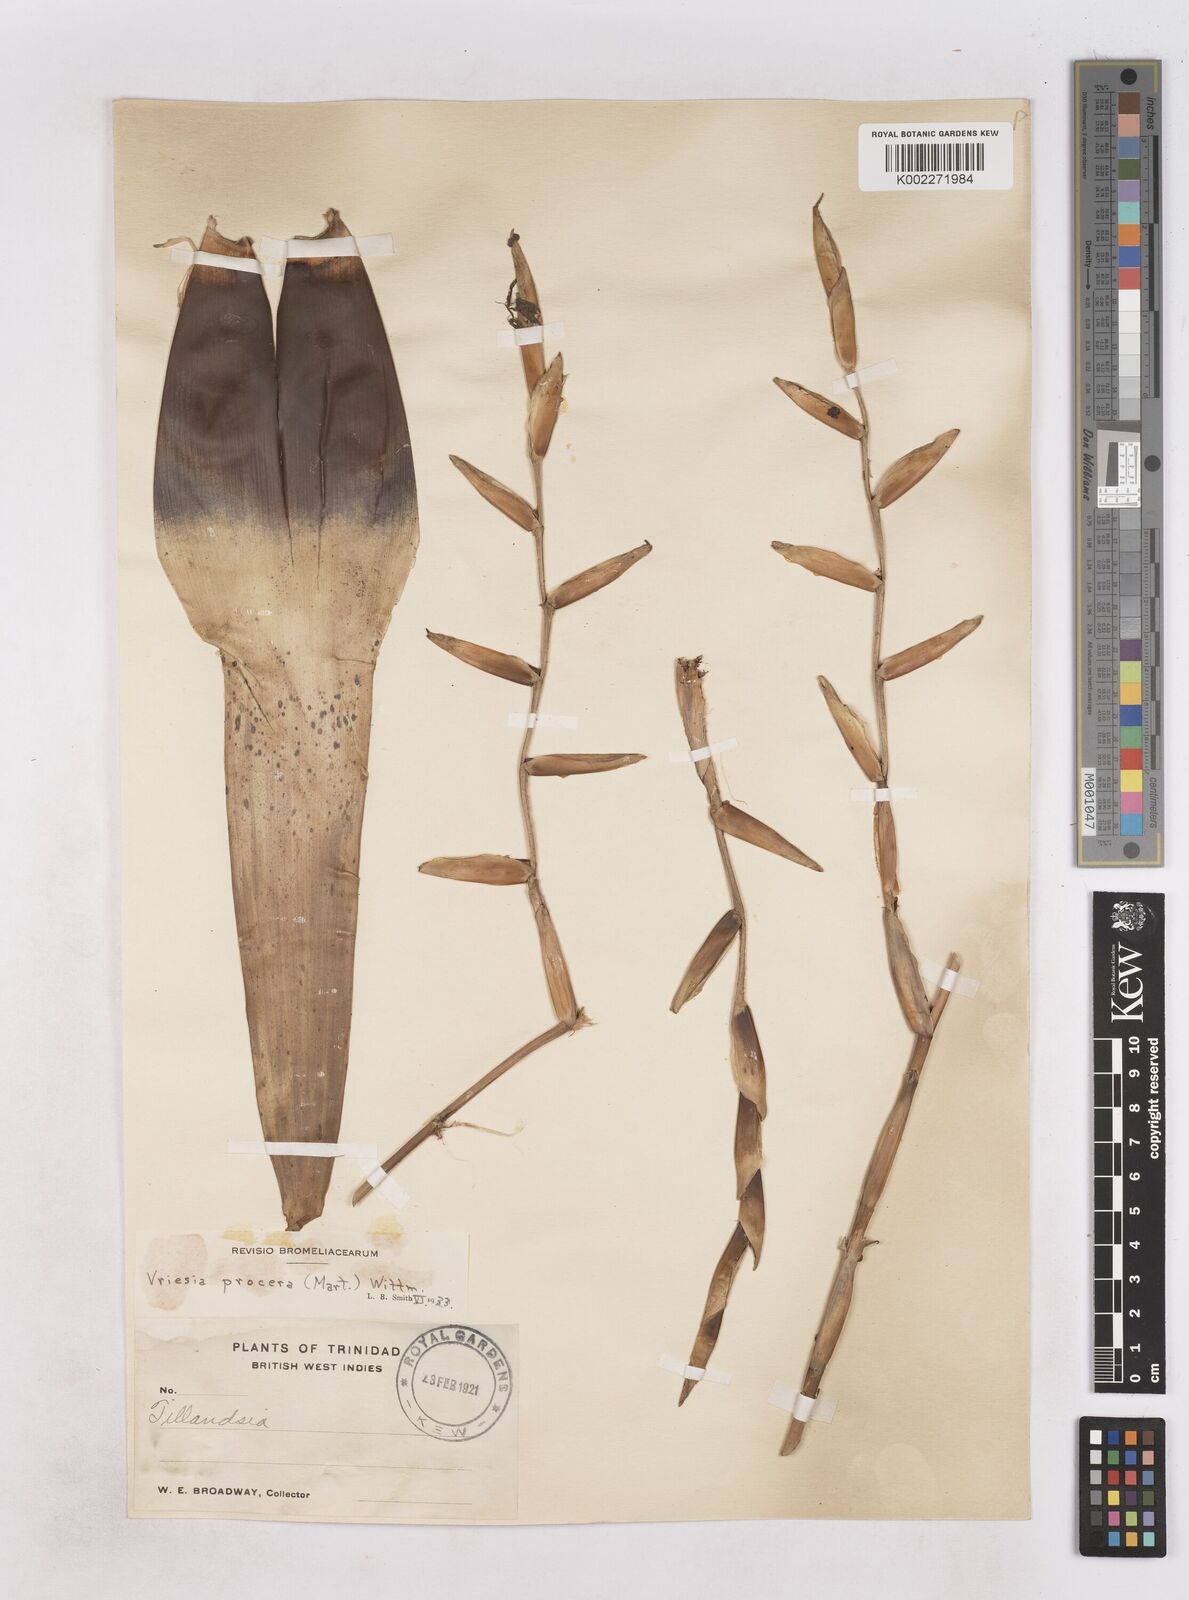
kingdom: Plantae
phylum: Tracheophyta
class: Liliopsida
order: Poales
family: Bromeliaceae
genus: Vriesea
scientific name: Vriesea procera
